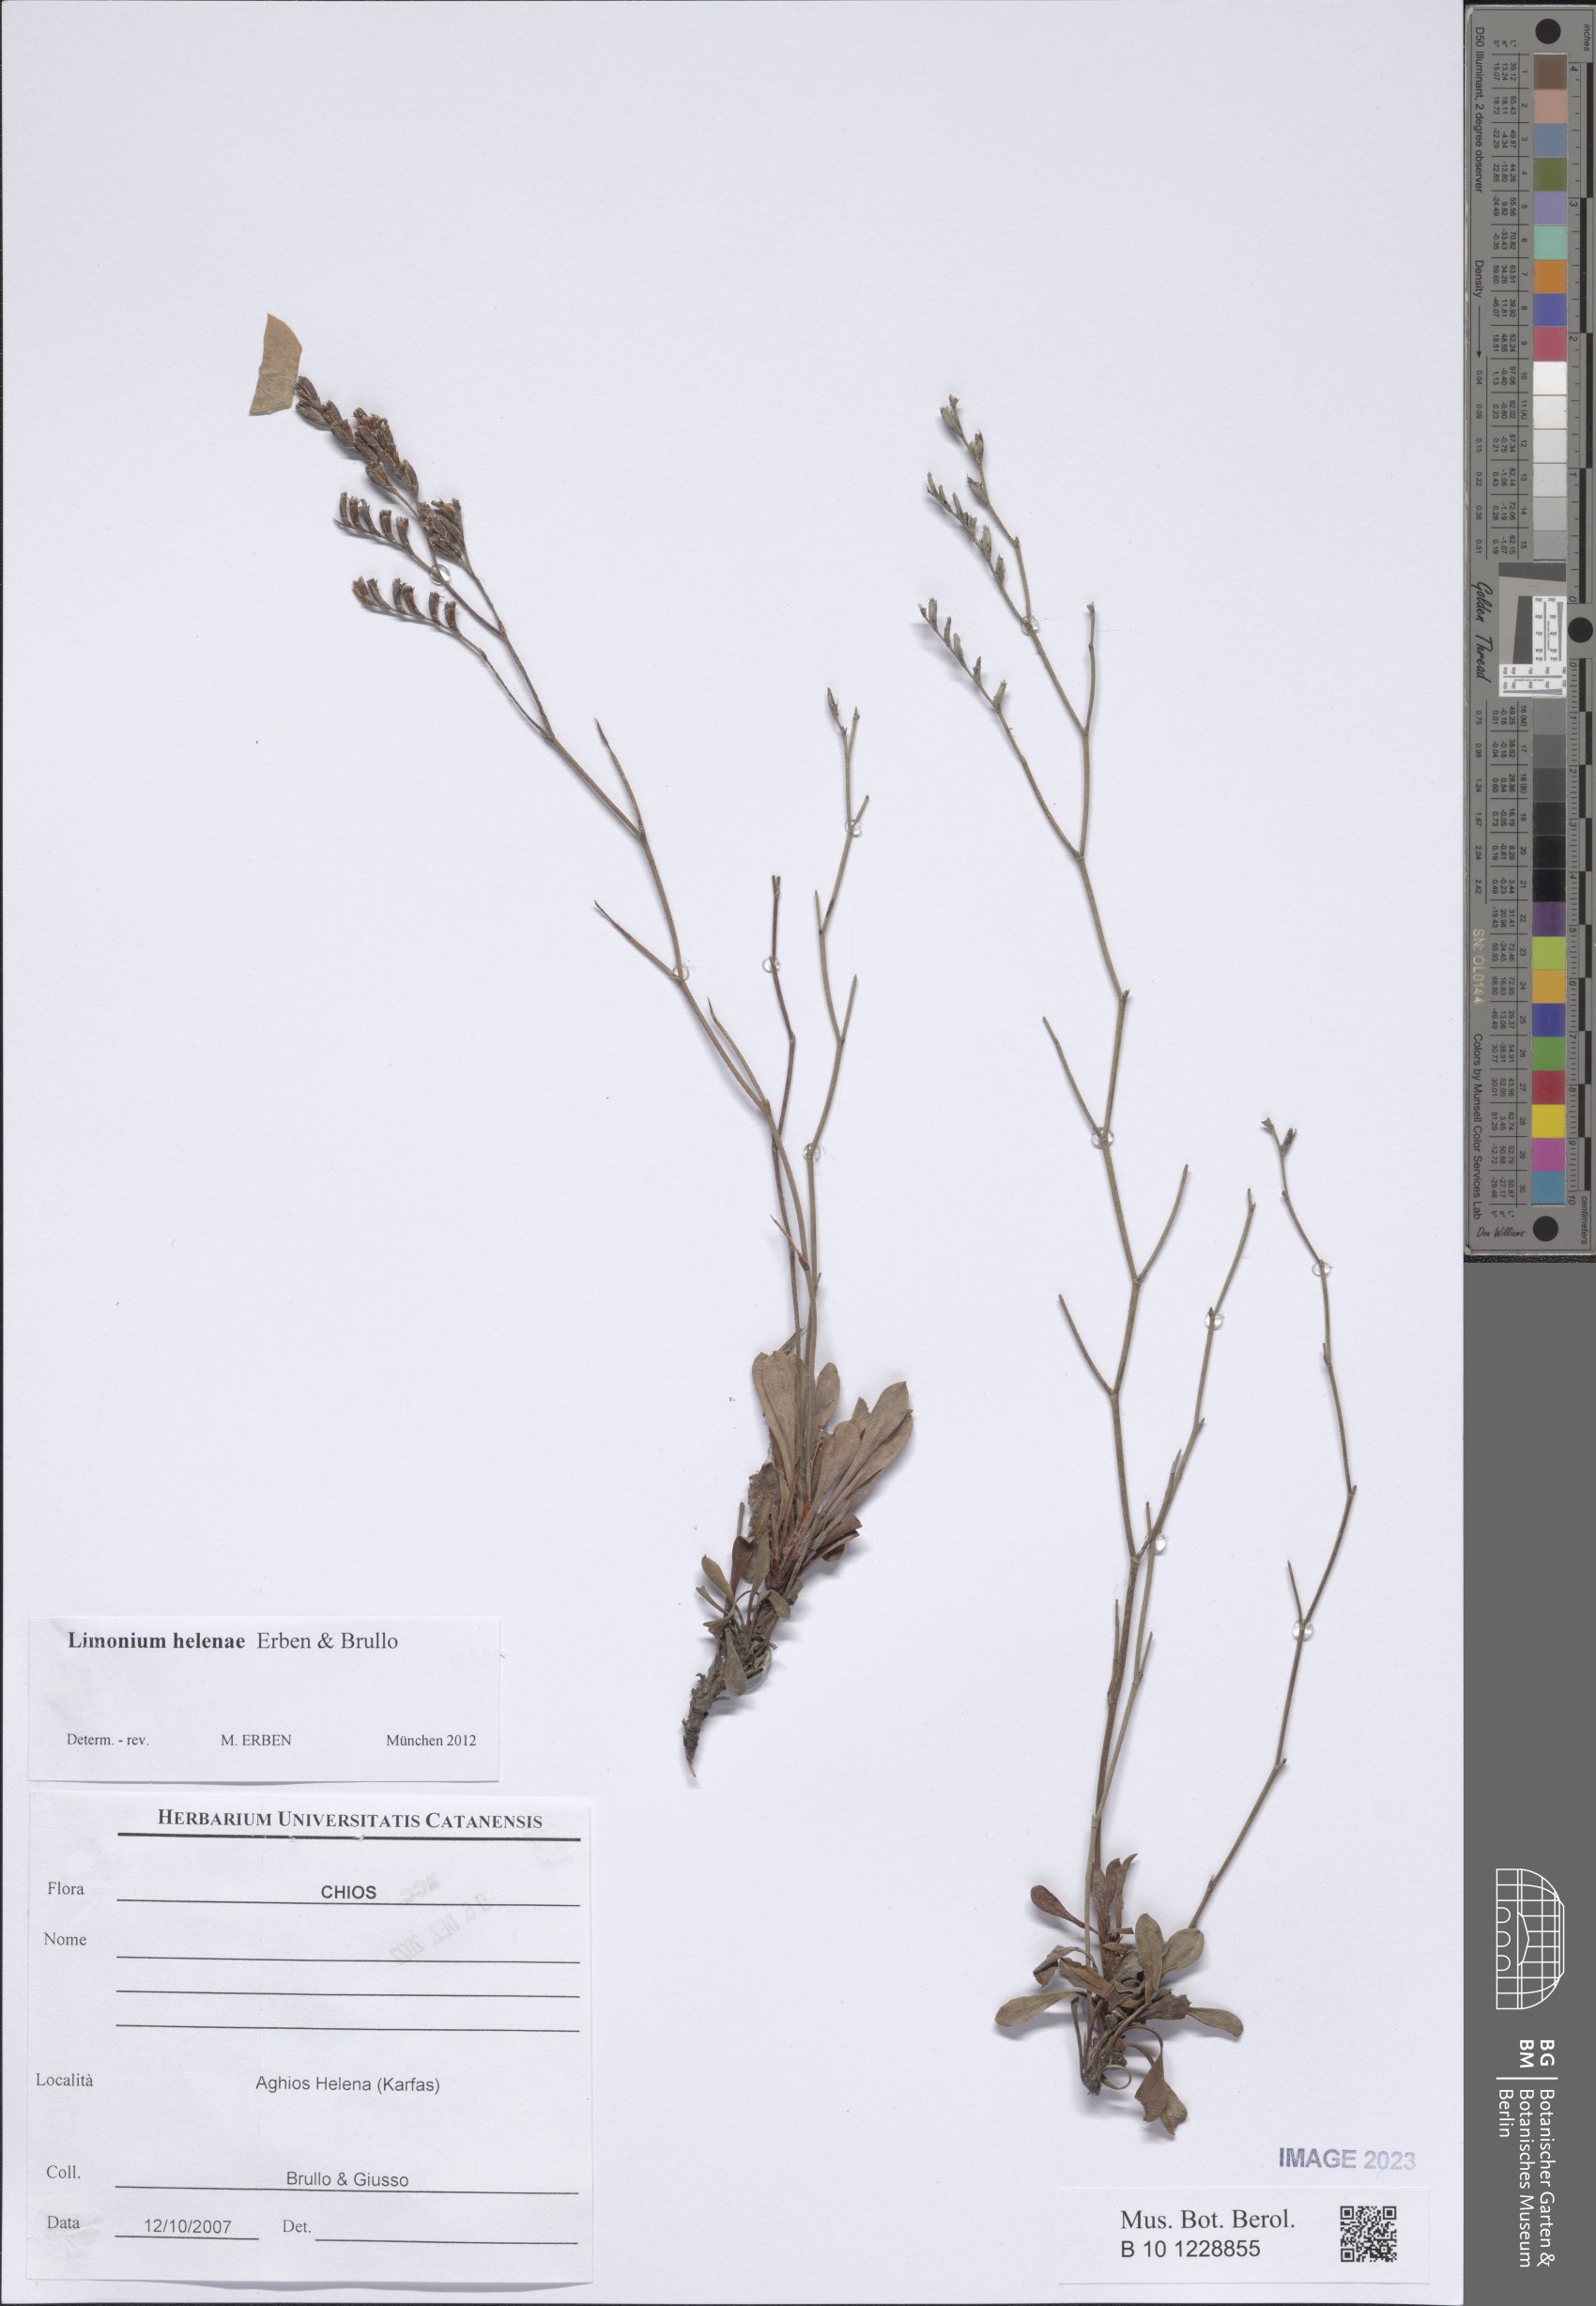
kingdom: Plantae
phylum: Tracheophyta
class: Magnoliopsida
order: Caryophyllales
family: Plumbaginaceae
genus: Limonium
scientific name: Limonium helenae
